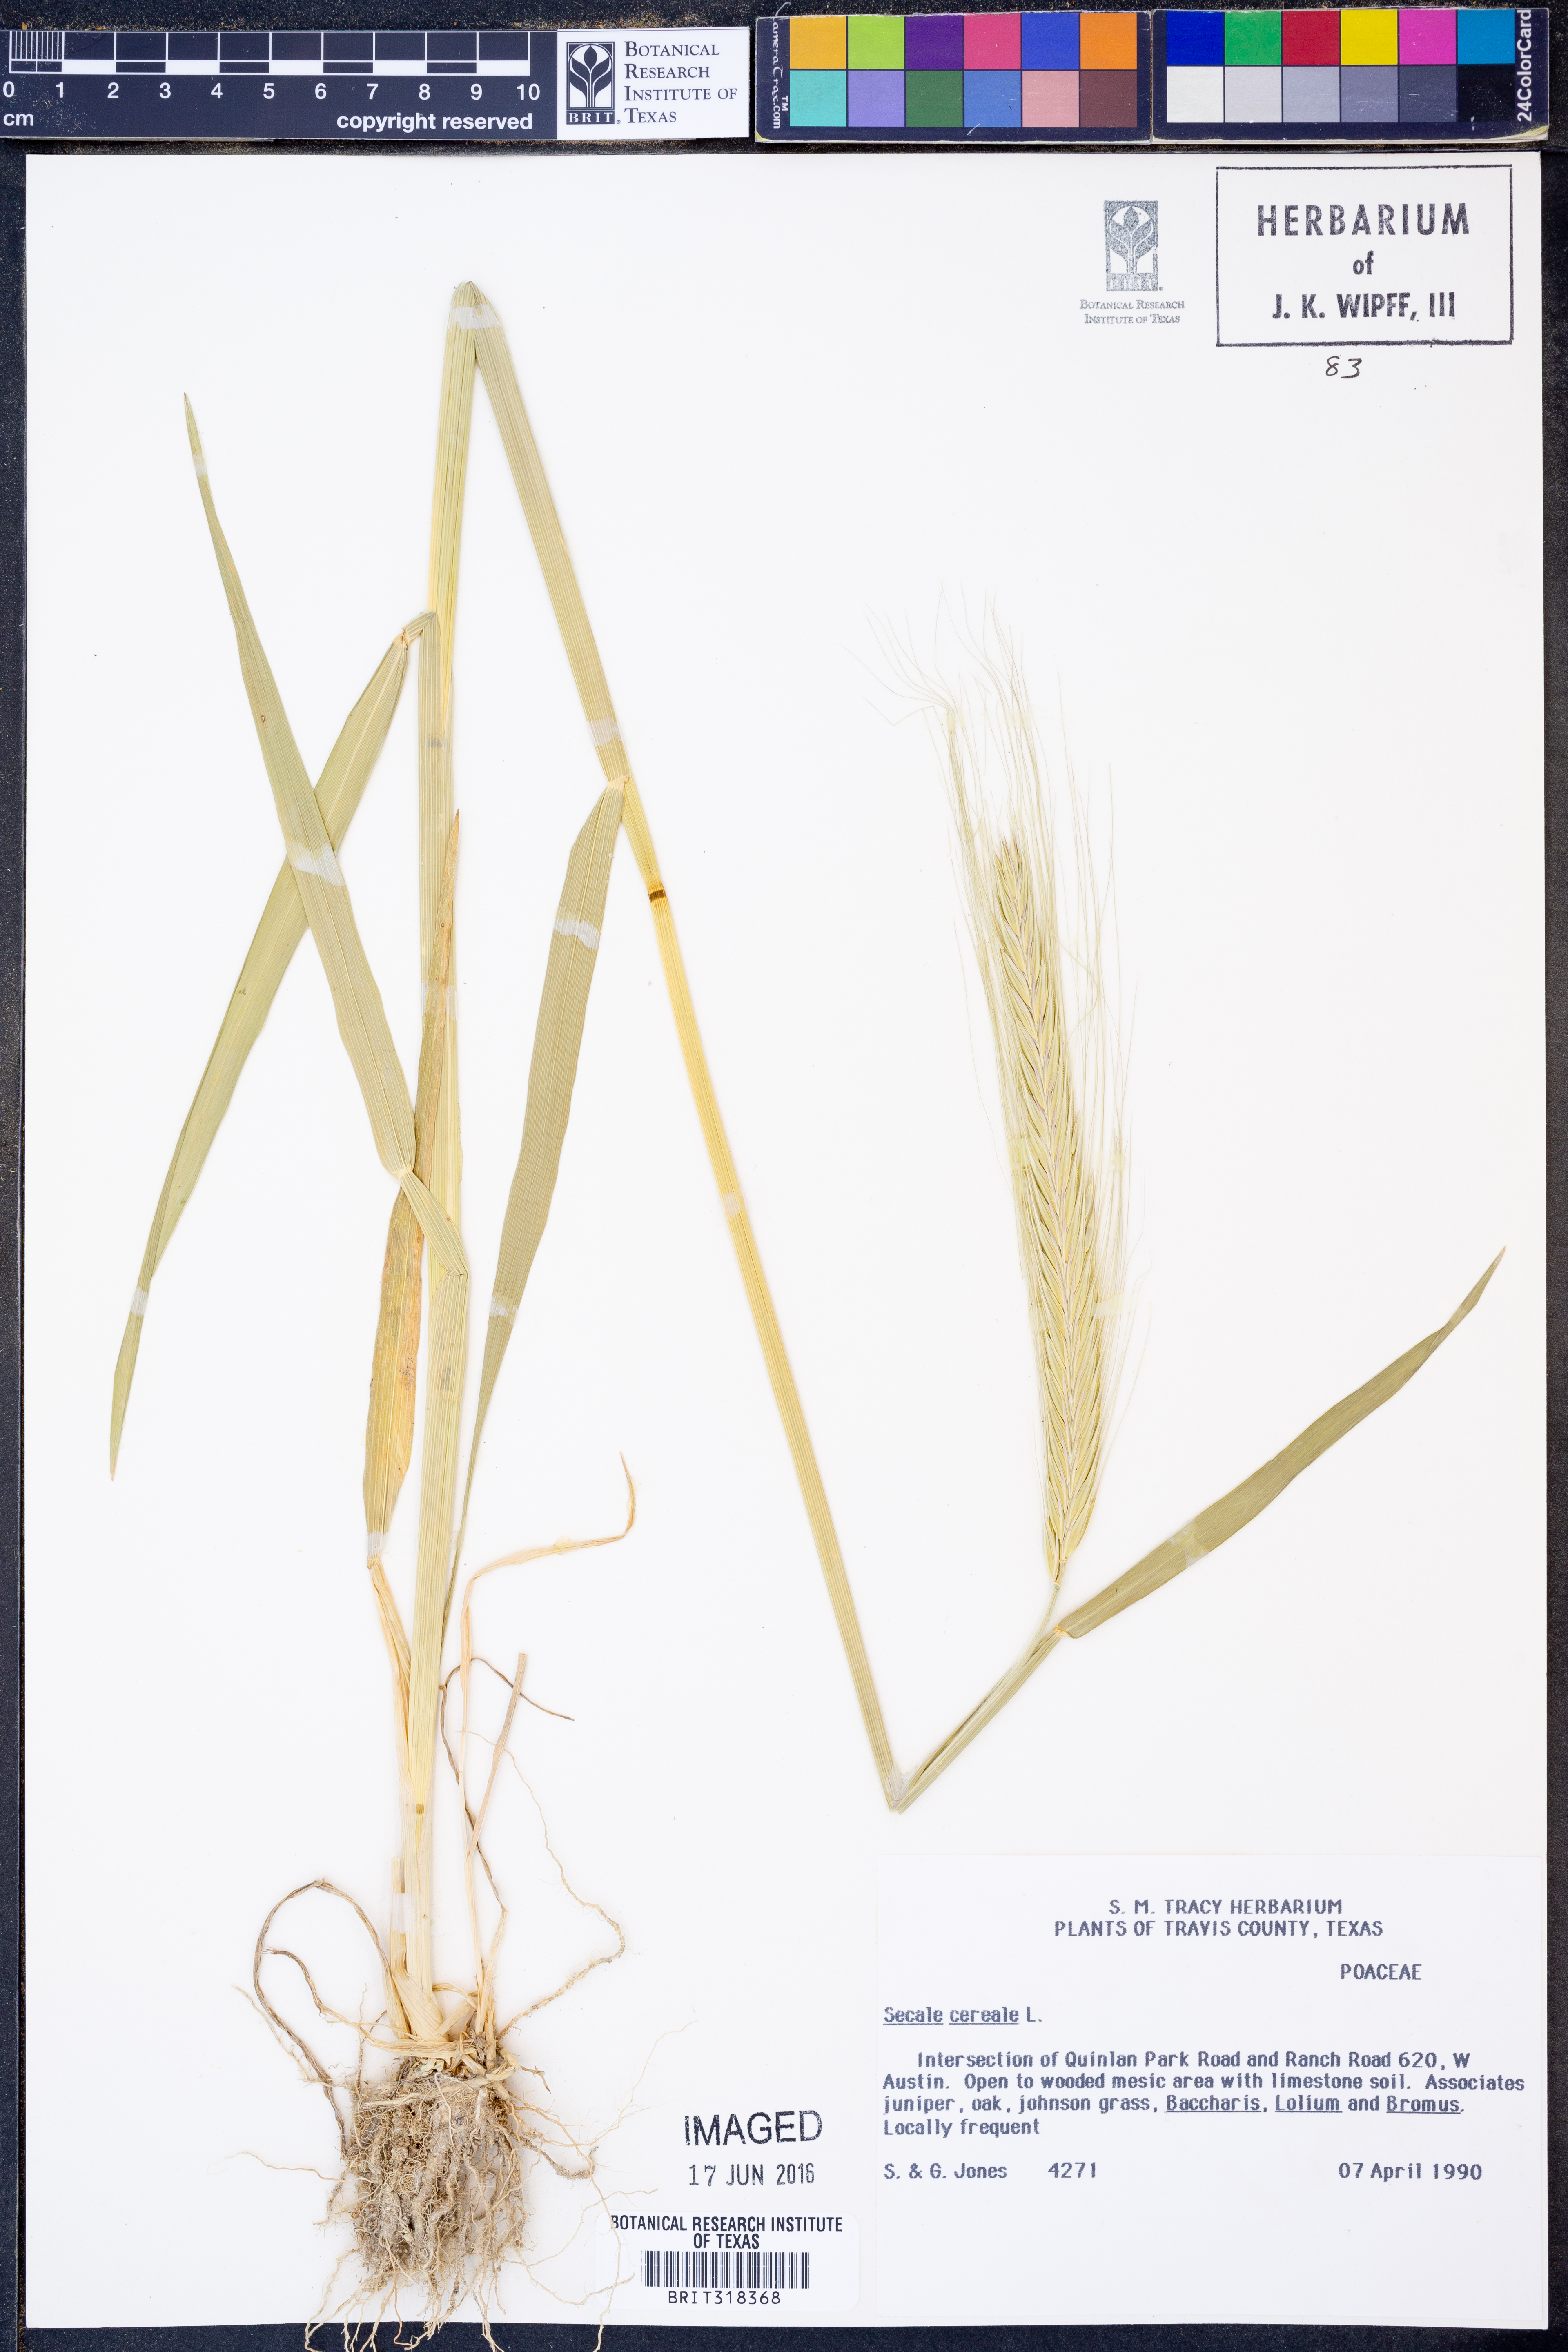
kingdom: Plantae
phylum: Tracheophyta
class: Liliopsida
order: Poales
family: Poaceae
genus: Secale
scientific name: Secale cereale
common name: Rye
